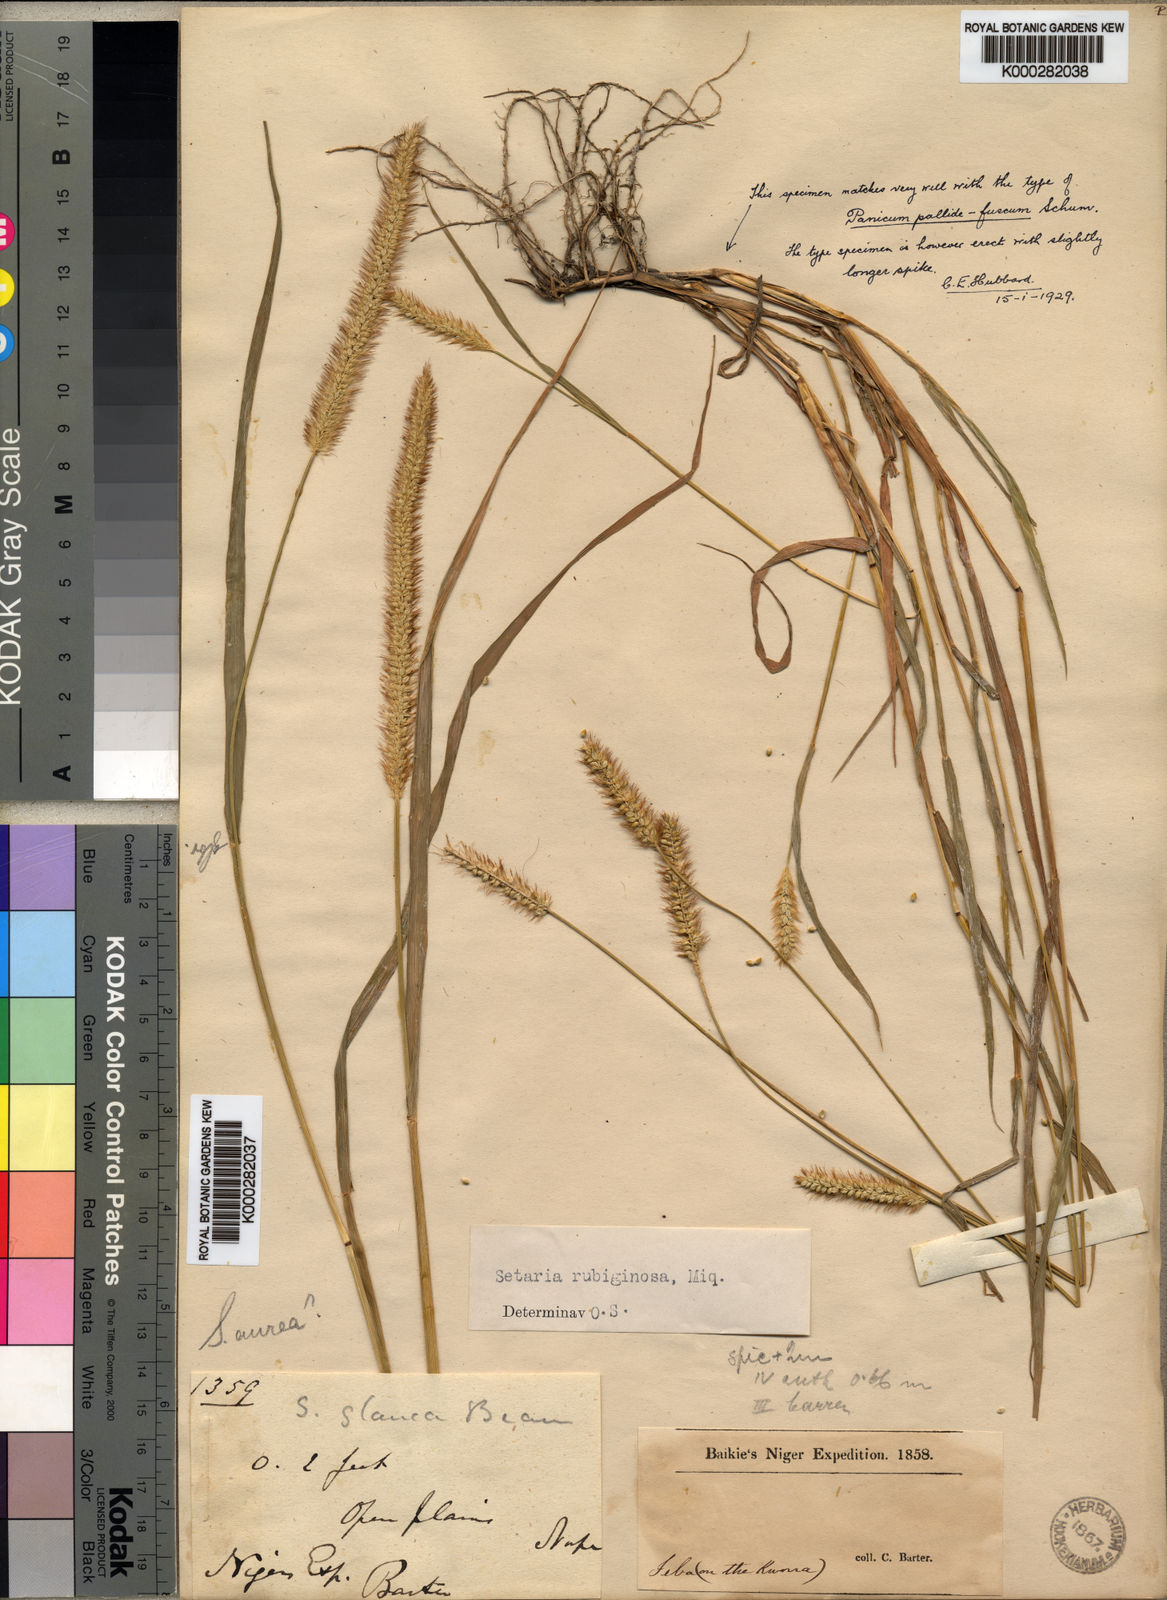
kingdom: Plantae
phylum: Tracheophyta
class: Liliopsida
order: Poales
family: Poaceae
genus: Setaria
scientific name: Setaria sphacelata
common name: African bristlegrass
